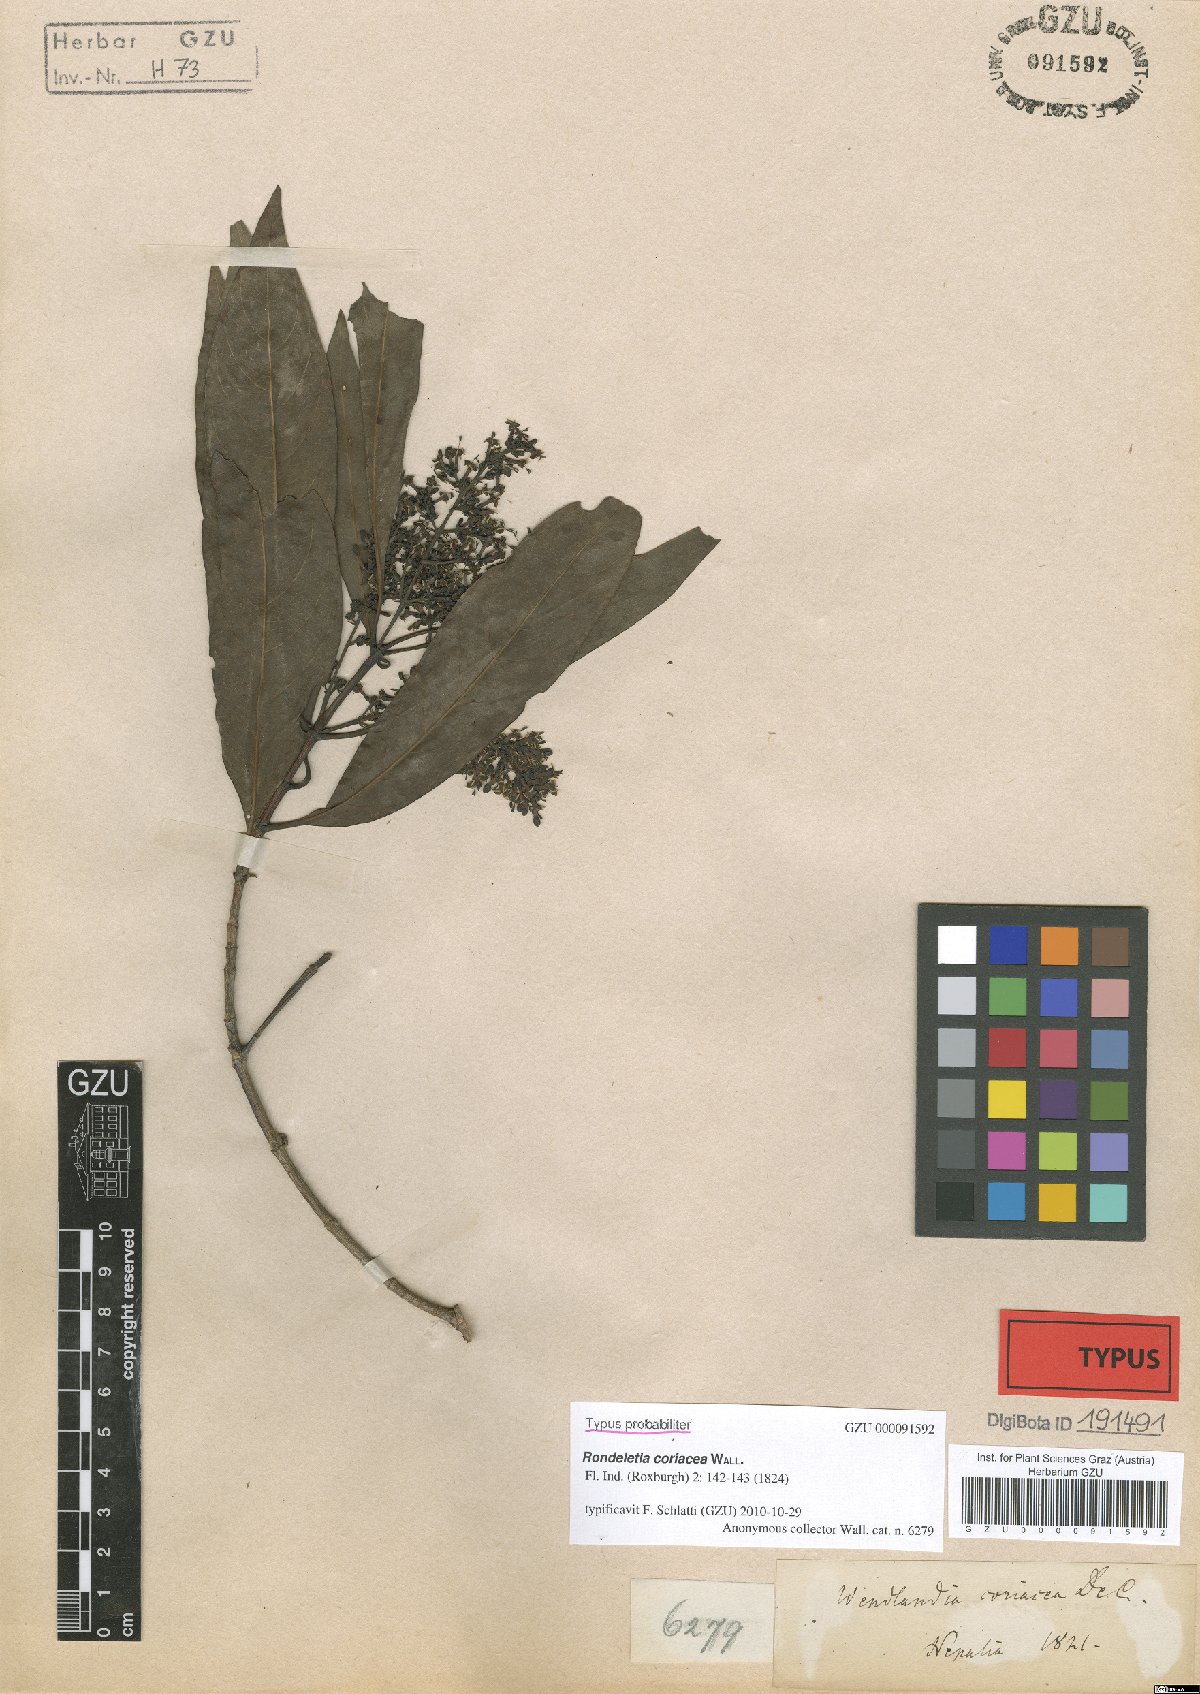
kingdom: Plantae
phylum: Tracheophyta
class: Magnoliopsida
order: Gentianales
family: Rubiaceae
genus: Wendlandia
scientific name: Wendlandia coriacea
